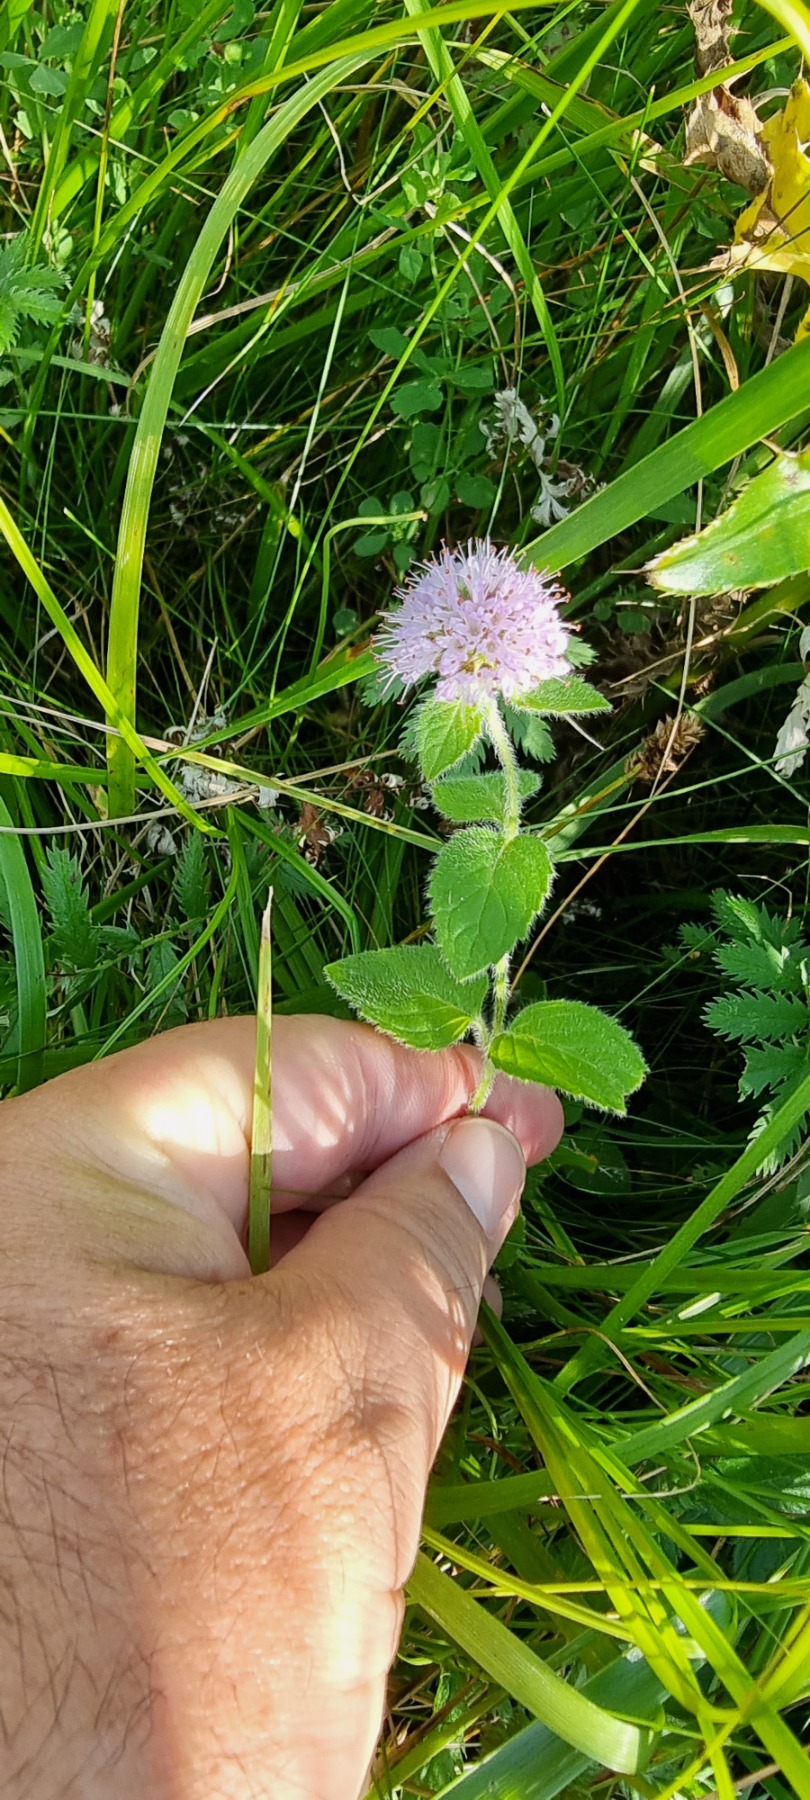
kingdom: Plantae
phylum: Tracheophyta
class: Magnoliopsida
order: Lamiales
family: Lamiaceae
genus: Mentha
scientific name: Mentha aquatica
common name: Vand-mynte
